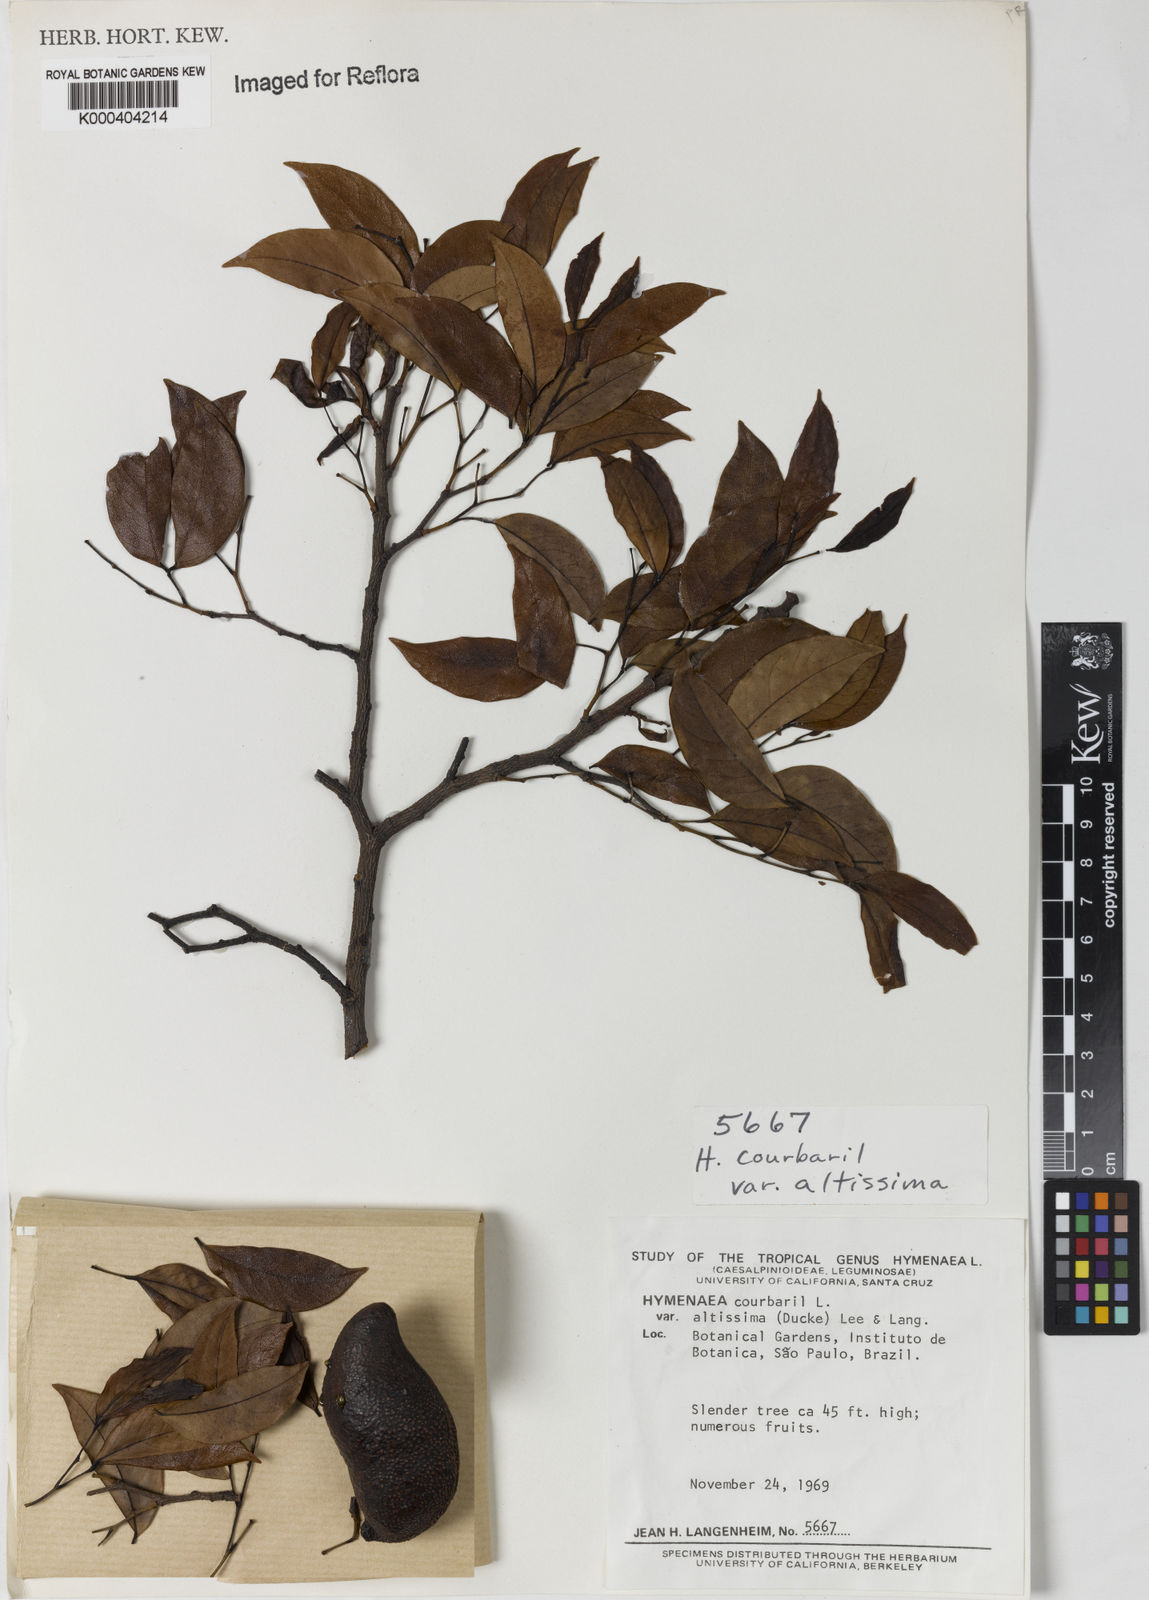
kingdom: Plantae
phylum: Tracheophyta
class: Magnoliopsida
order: Fabales
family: Fabaceae
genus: Hymenaea
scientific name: Hymenaea altissima
